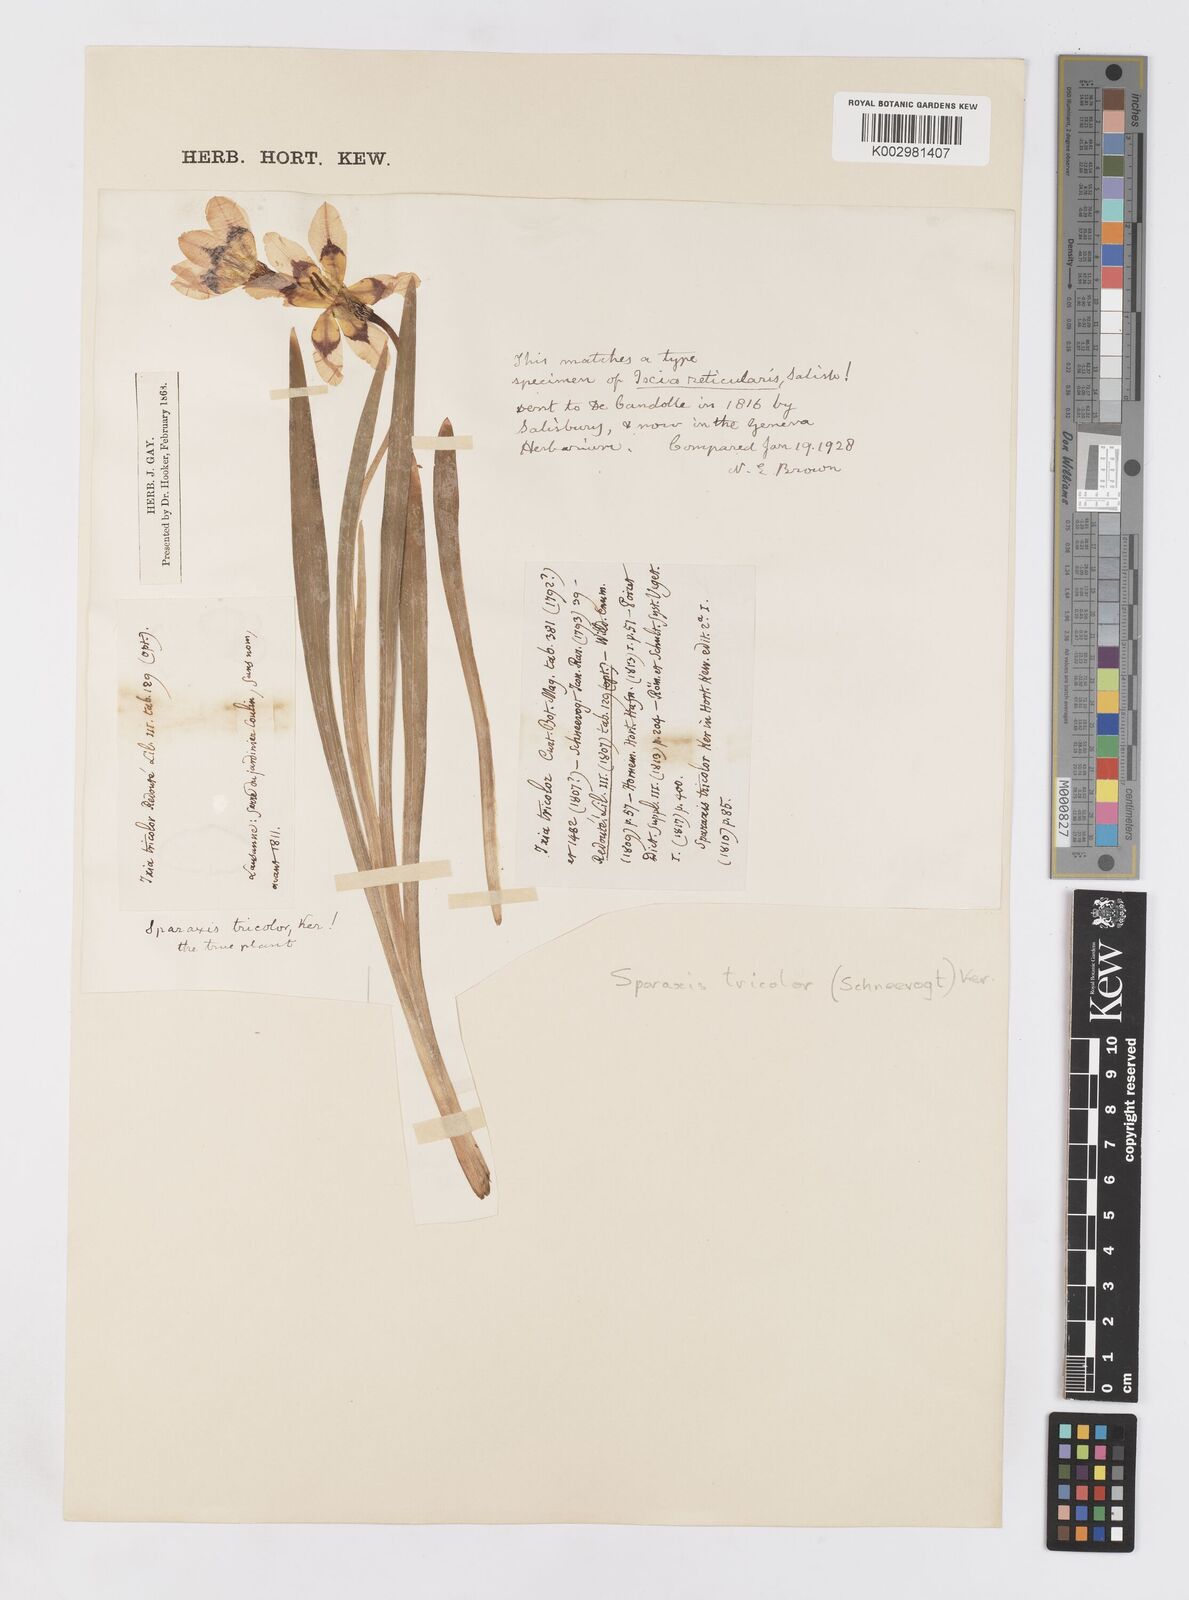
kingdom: Plantae
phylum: Tracheophyta
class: Liliopsida
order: Asparagales
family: Iridaceae
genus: Sparaxis
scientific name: Sparaxis tricolor
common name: Wandflower
